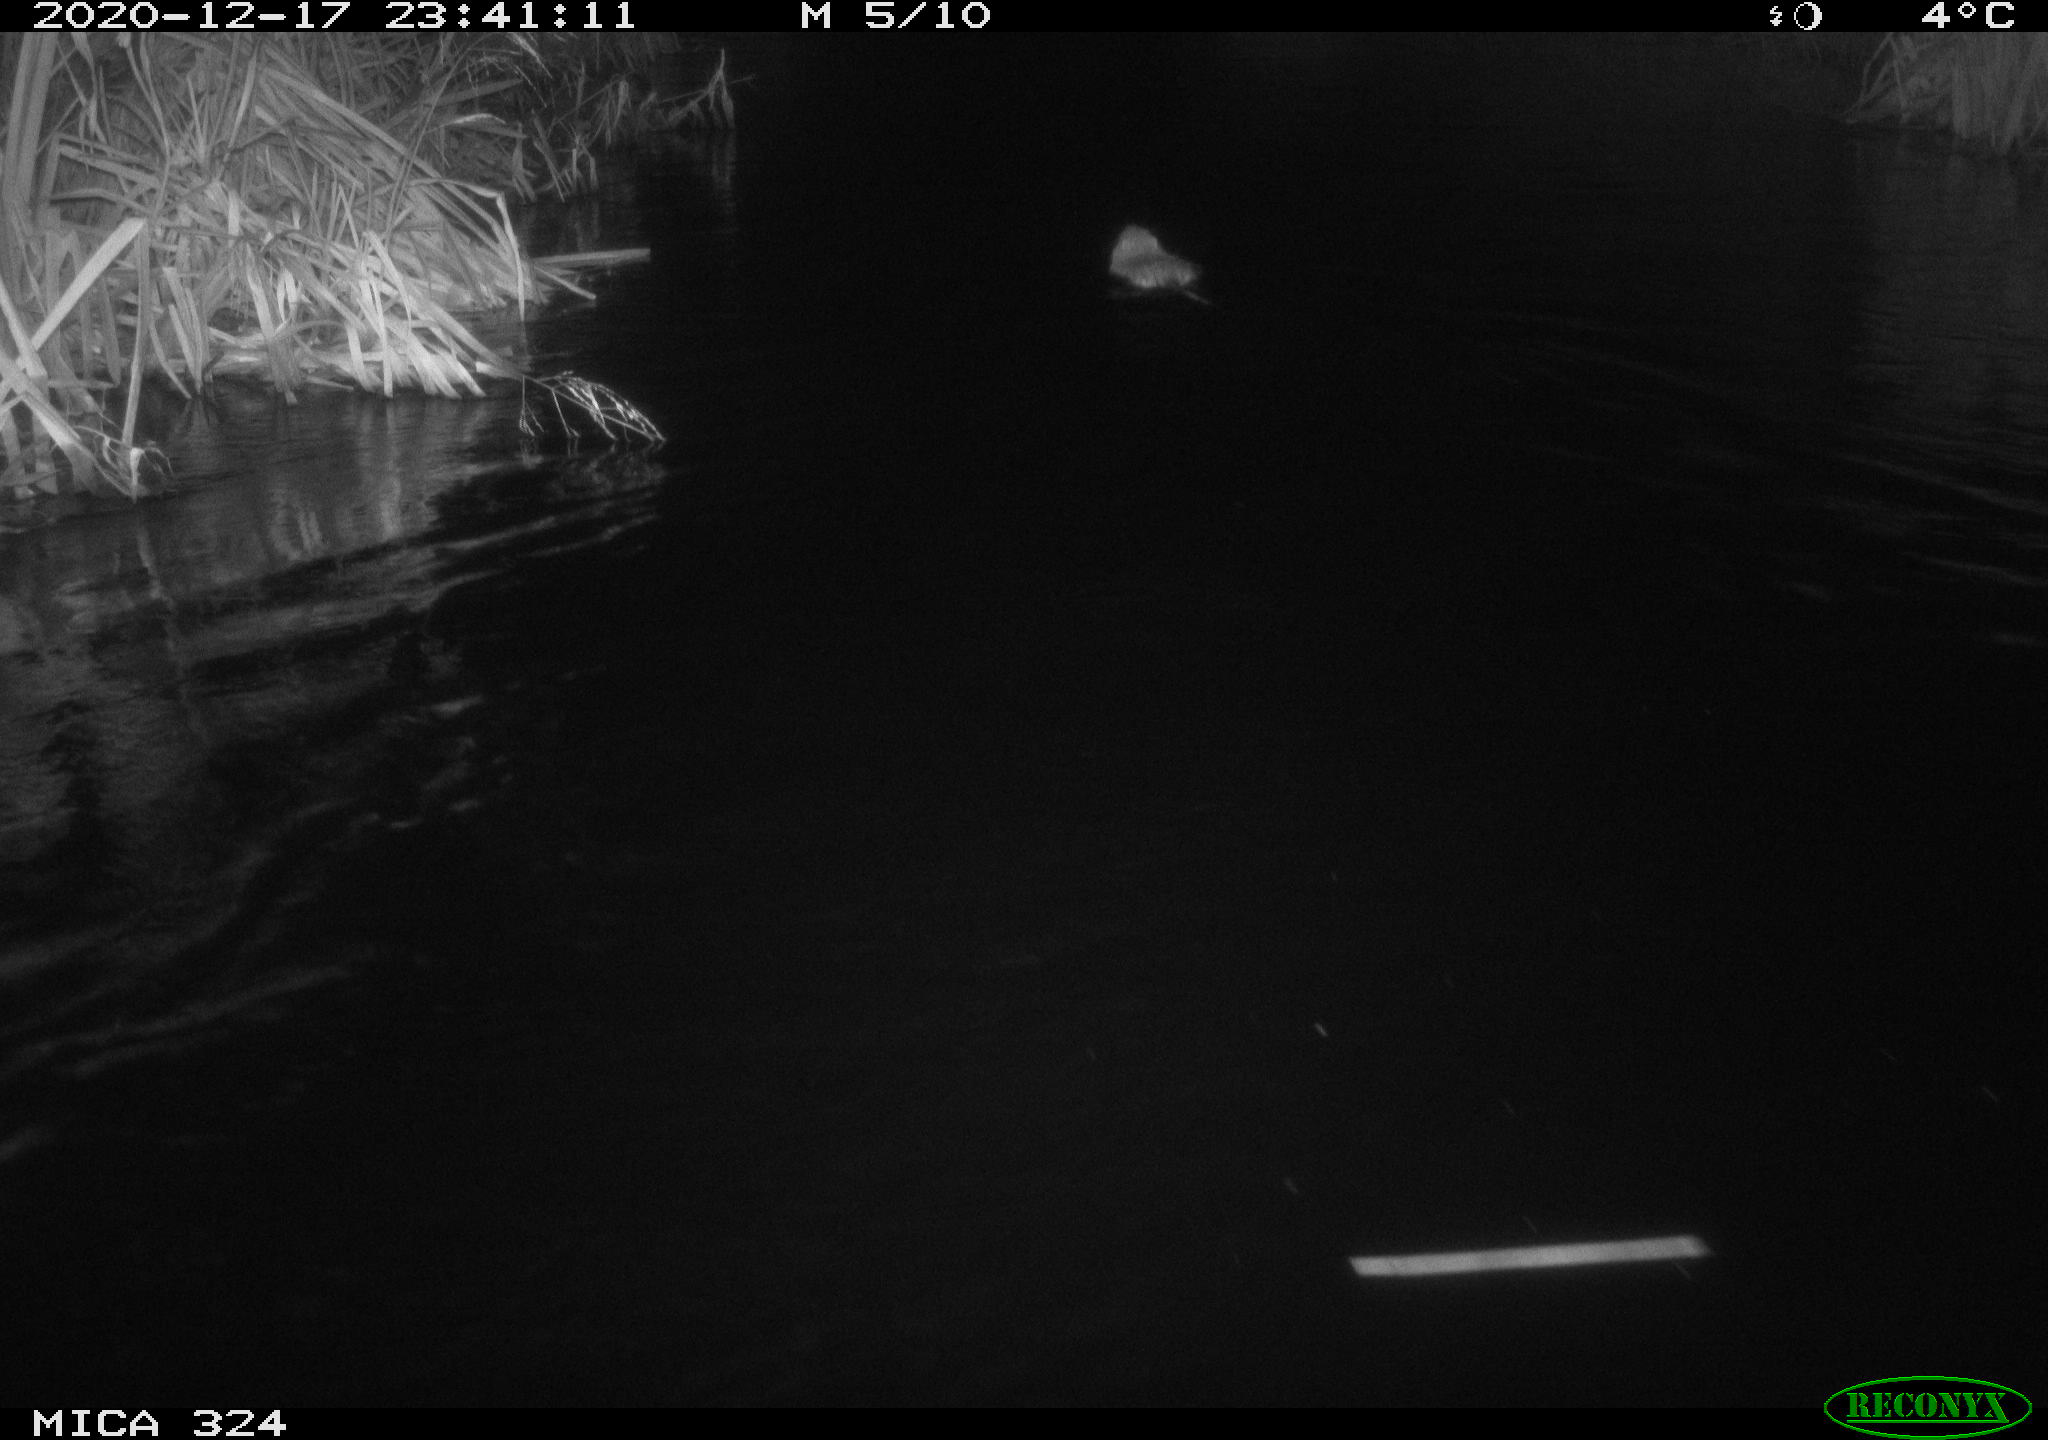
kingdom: Animalia
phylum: Chordata
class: Mammalia
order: Rodentia
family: Myocastoridae
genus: Myocastor
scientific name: Myocastor coypus
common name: Coypu
